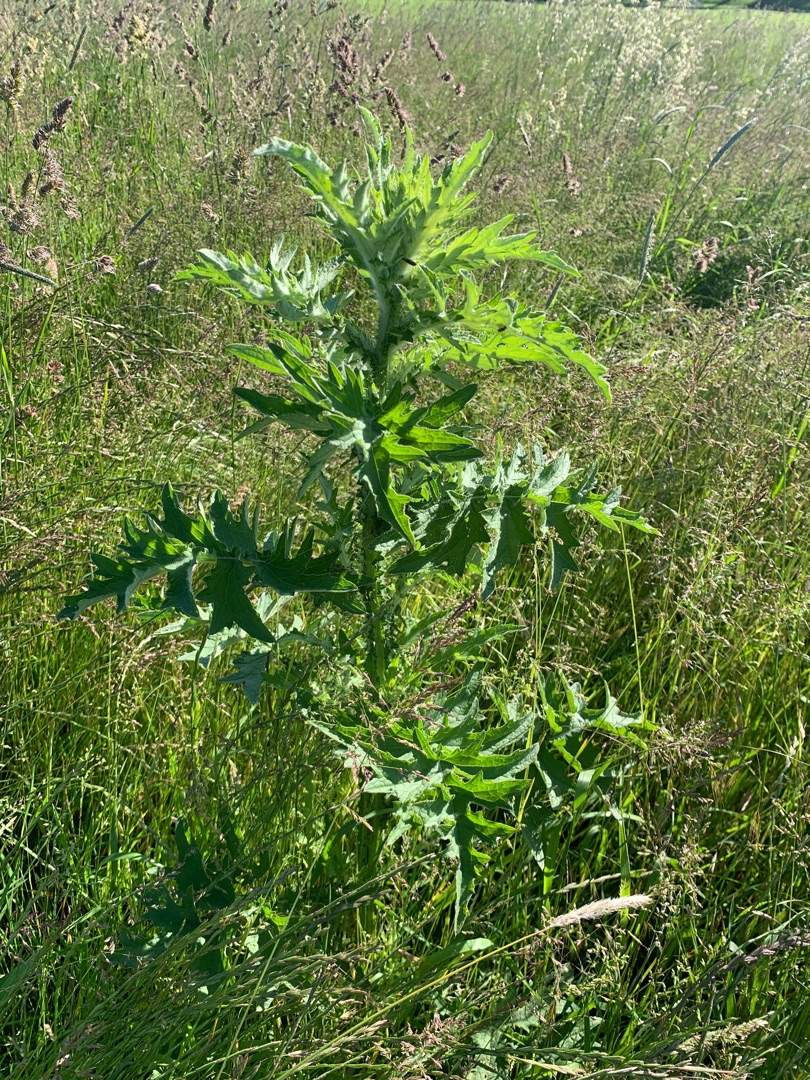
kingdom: Plantae
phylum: Tracheophyta
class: Magnoliopsida
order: Asterales
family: Asteraceae
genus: Carduus
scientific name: Carduus crispus
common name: Kruset tidsel
